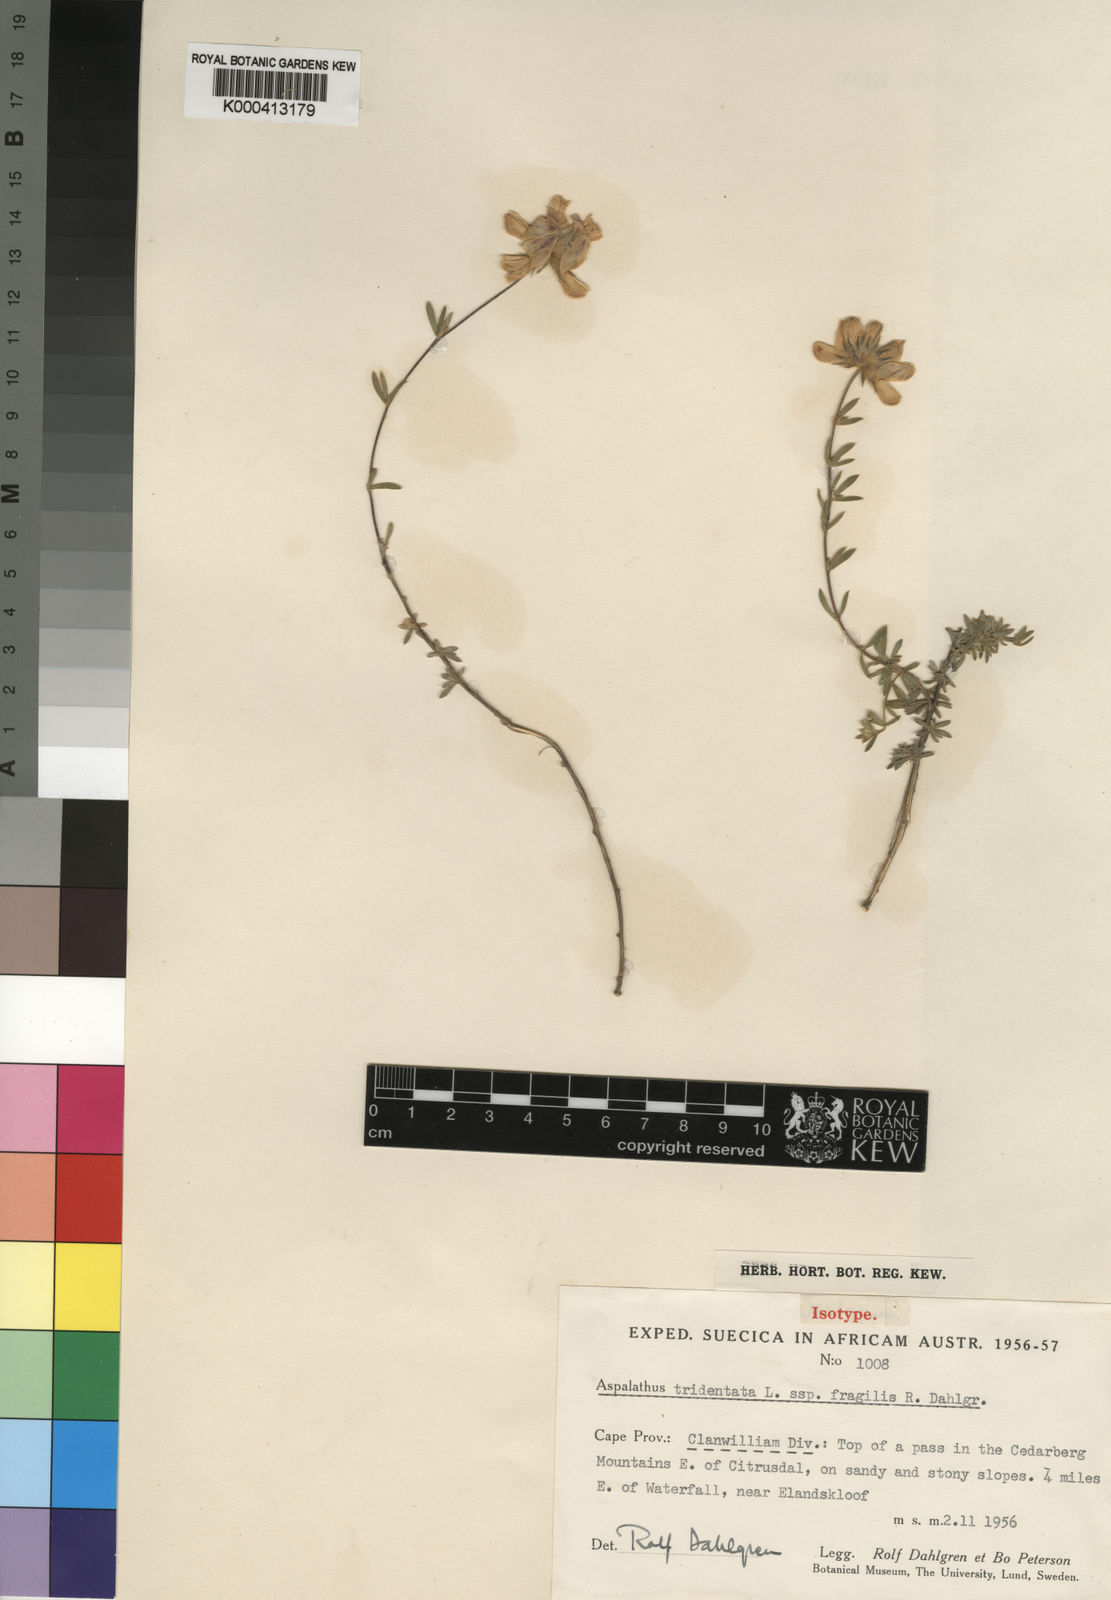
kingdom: Plantae
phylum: Tracheophyta
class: Magnoliopsida
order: Fabales
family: Fabaceae
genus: Aspalathus
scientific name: Aspalathus tridentata
